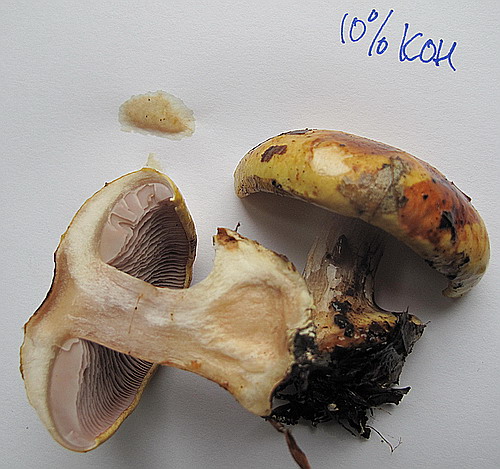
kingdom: Fungi
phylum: Basidiomycota
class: Agaricomycetes
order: Agaricales
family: Cortinariaceae
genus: Calonarius
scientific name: Calonarius callochrous
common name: lillabladet slørhat
